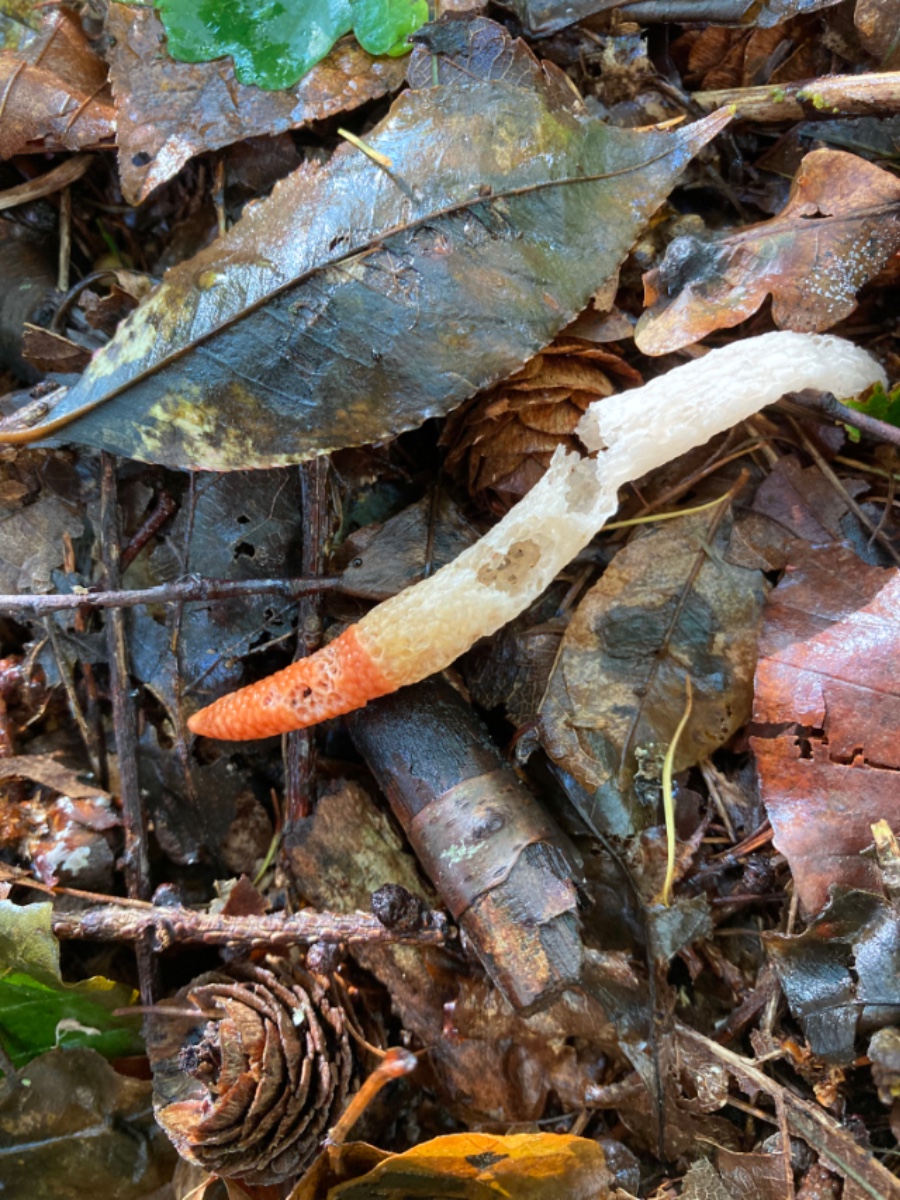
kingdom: Fungi
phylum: Basidiomycota
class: Agaricomycetes
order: Phallales
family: Phallaceae
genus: Mutinus
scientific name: Mutinus caninus
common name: hunde-stinksvamp
